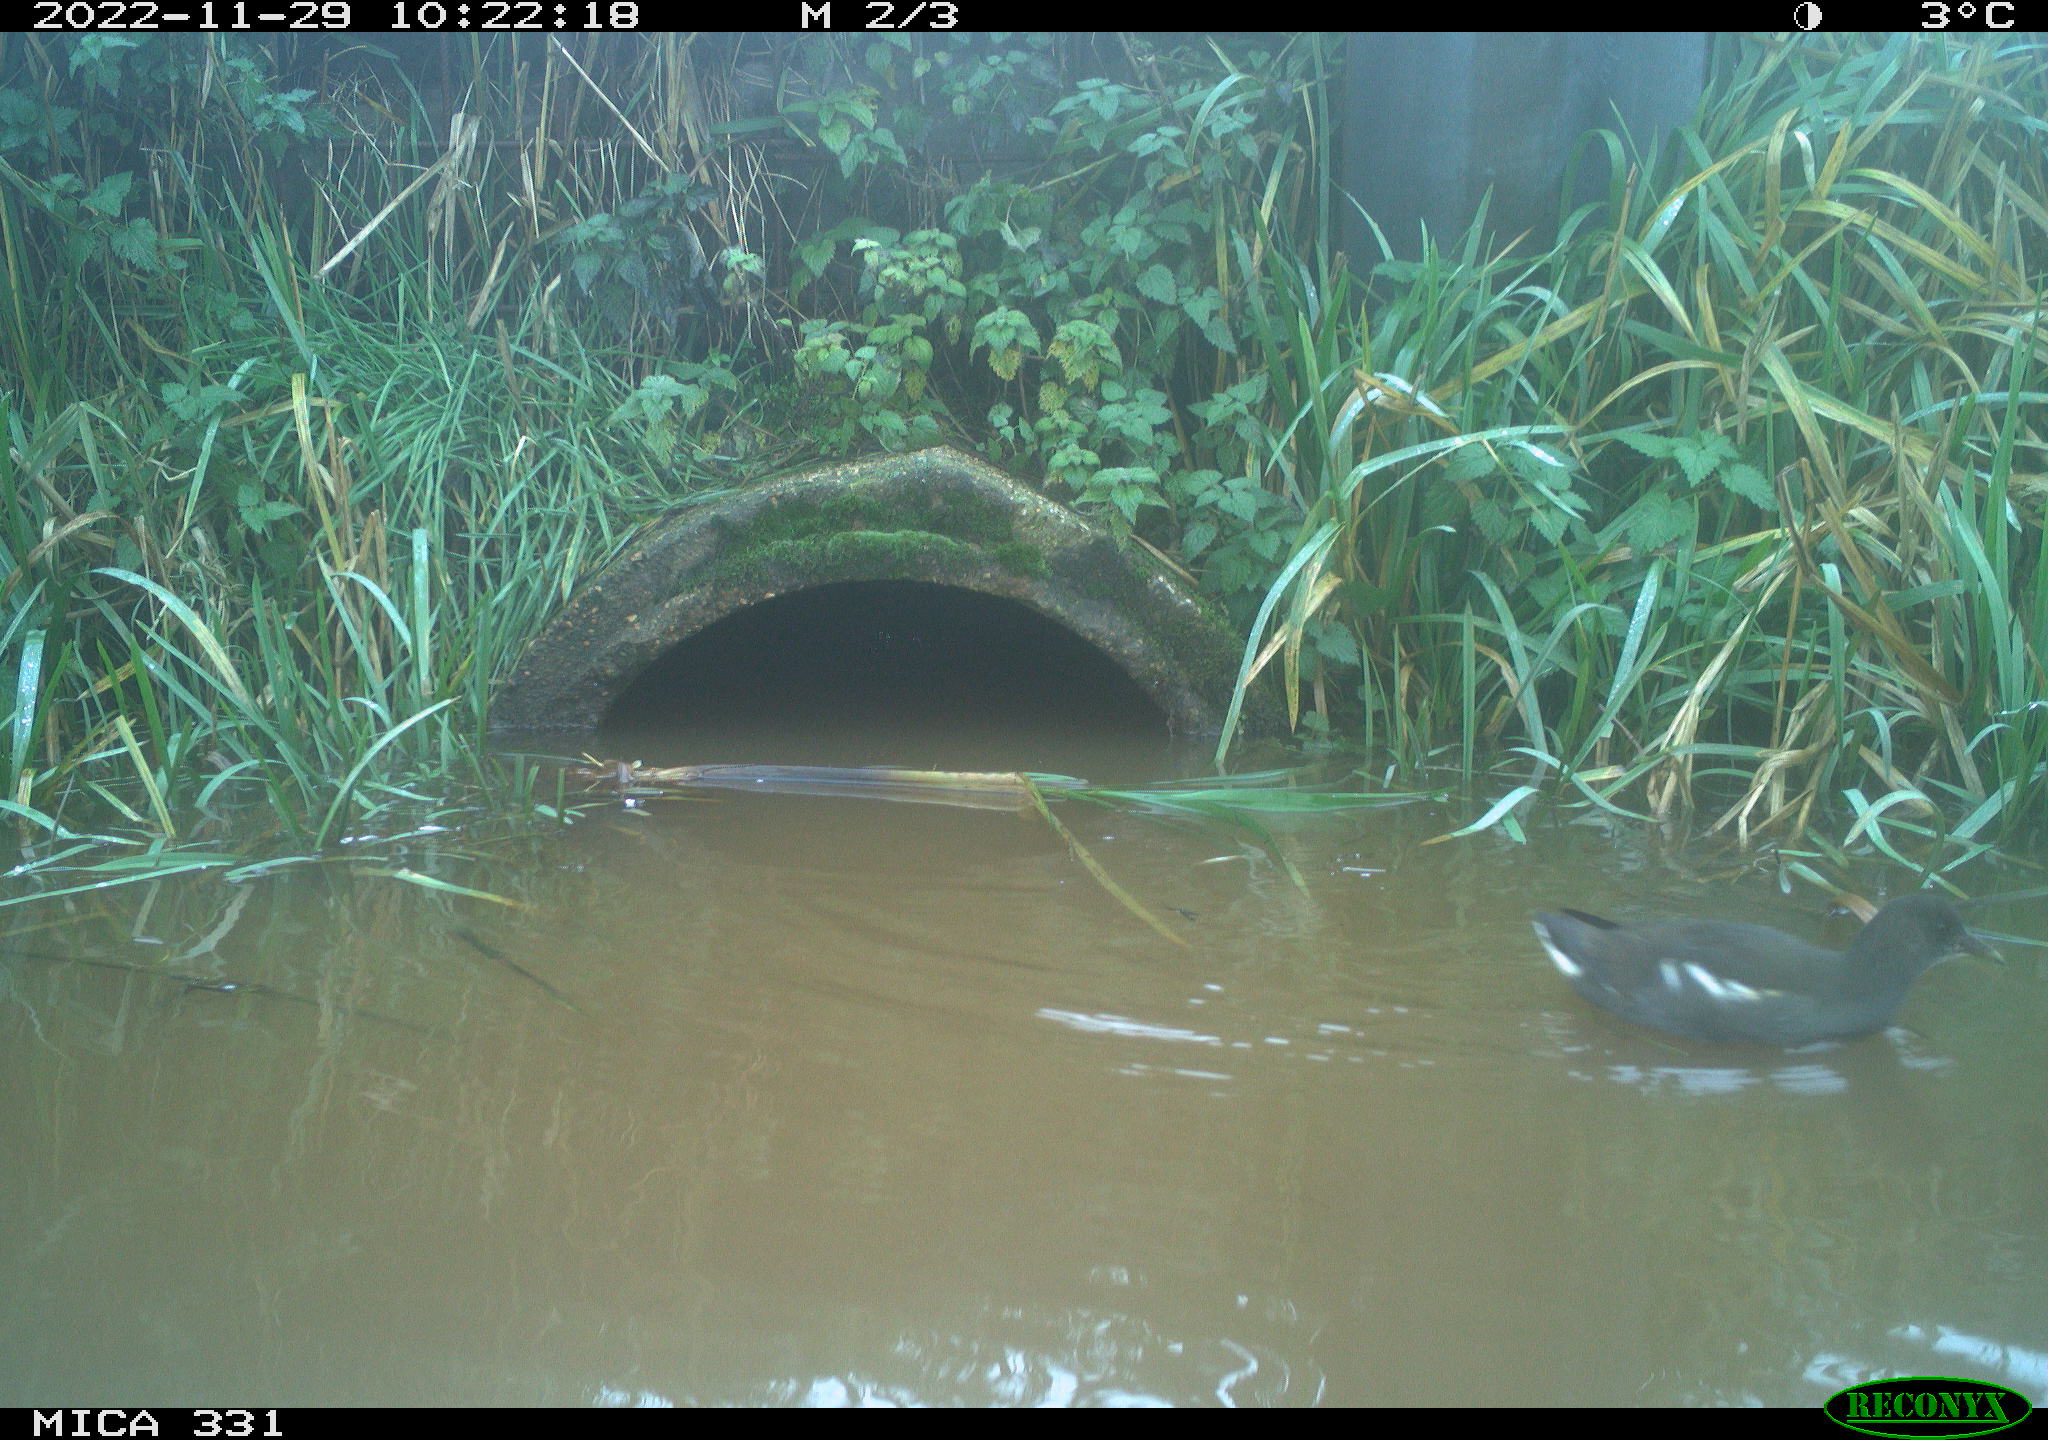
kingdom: Animalia
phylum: Chordata
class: Aves
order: Gruiformes
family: Rallidae
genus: Gallinula
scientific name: Gallinula chloropus
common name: Common moorhen
